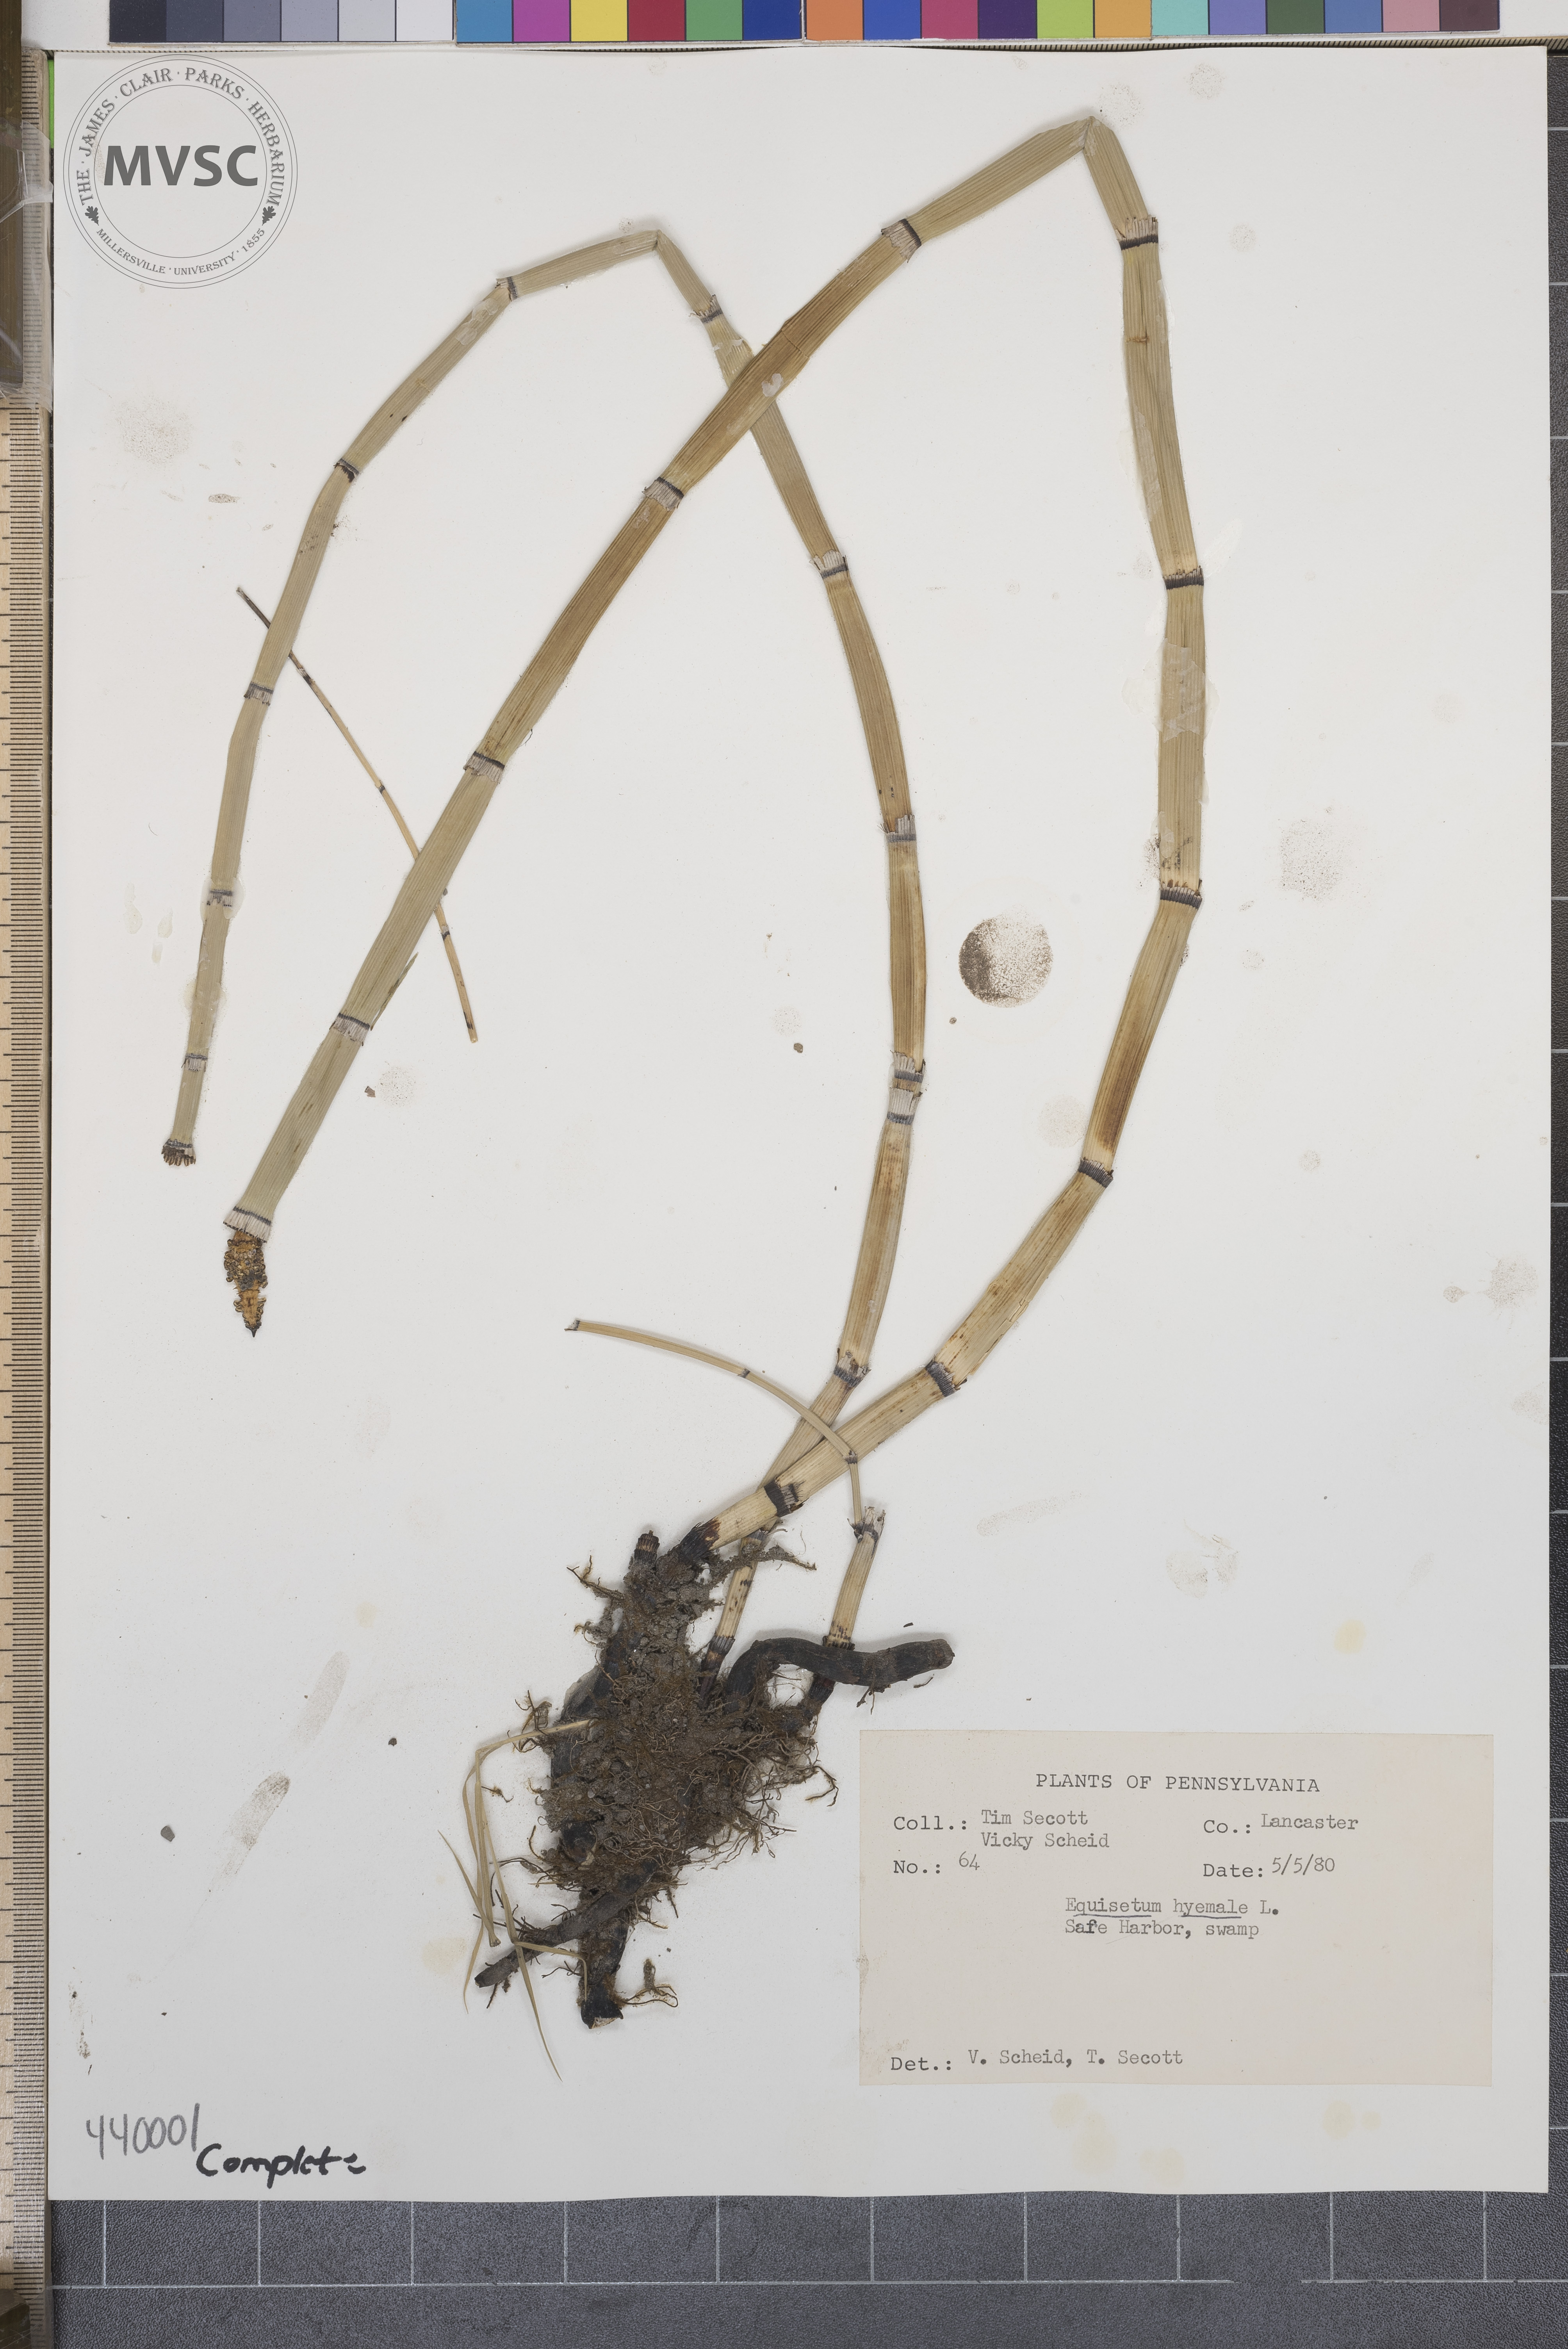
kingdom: Plantae
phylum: Tracheophyta
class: Polypodiopsida
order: Equisetales
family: Equisetaceae
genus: Equisetum
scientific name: Equisetum hyemale
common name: Rough horsetail
